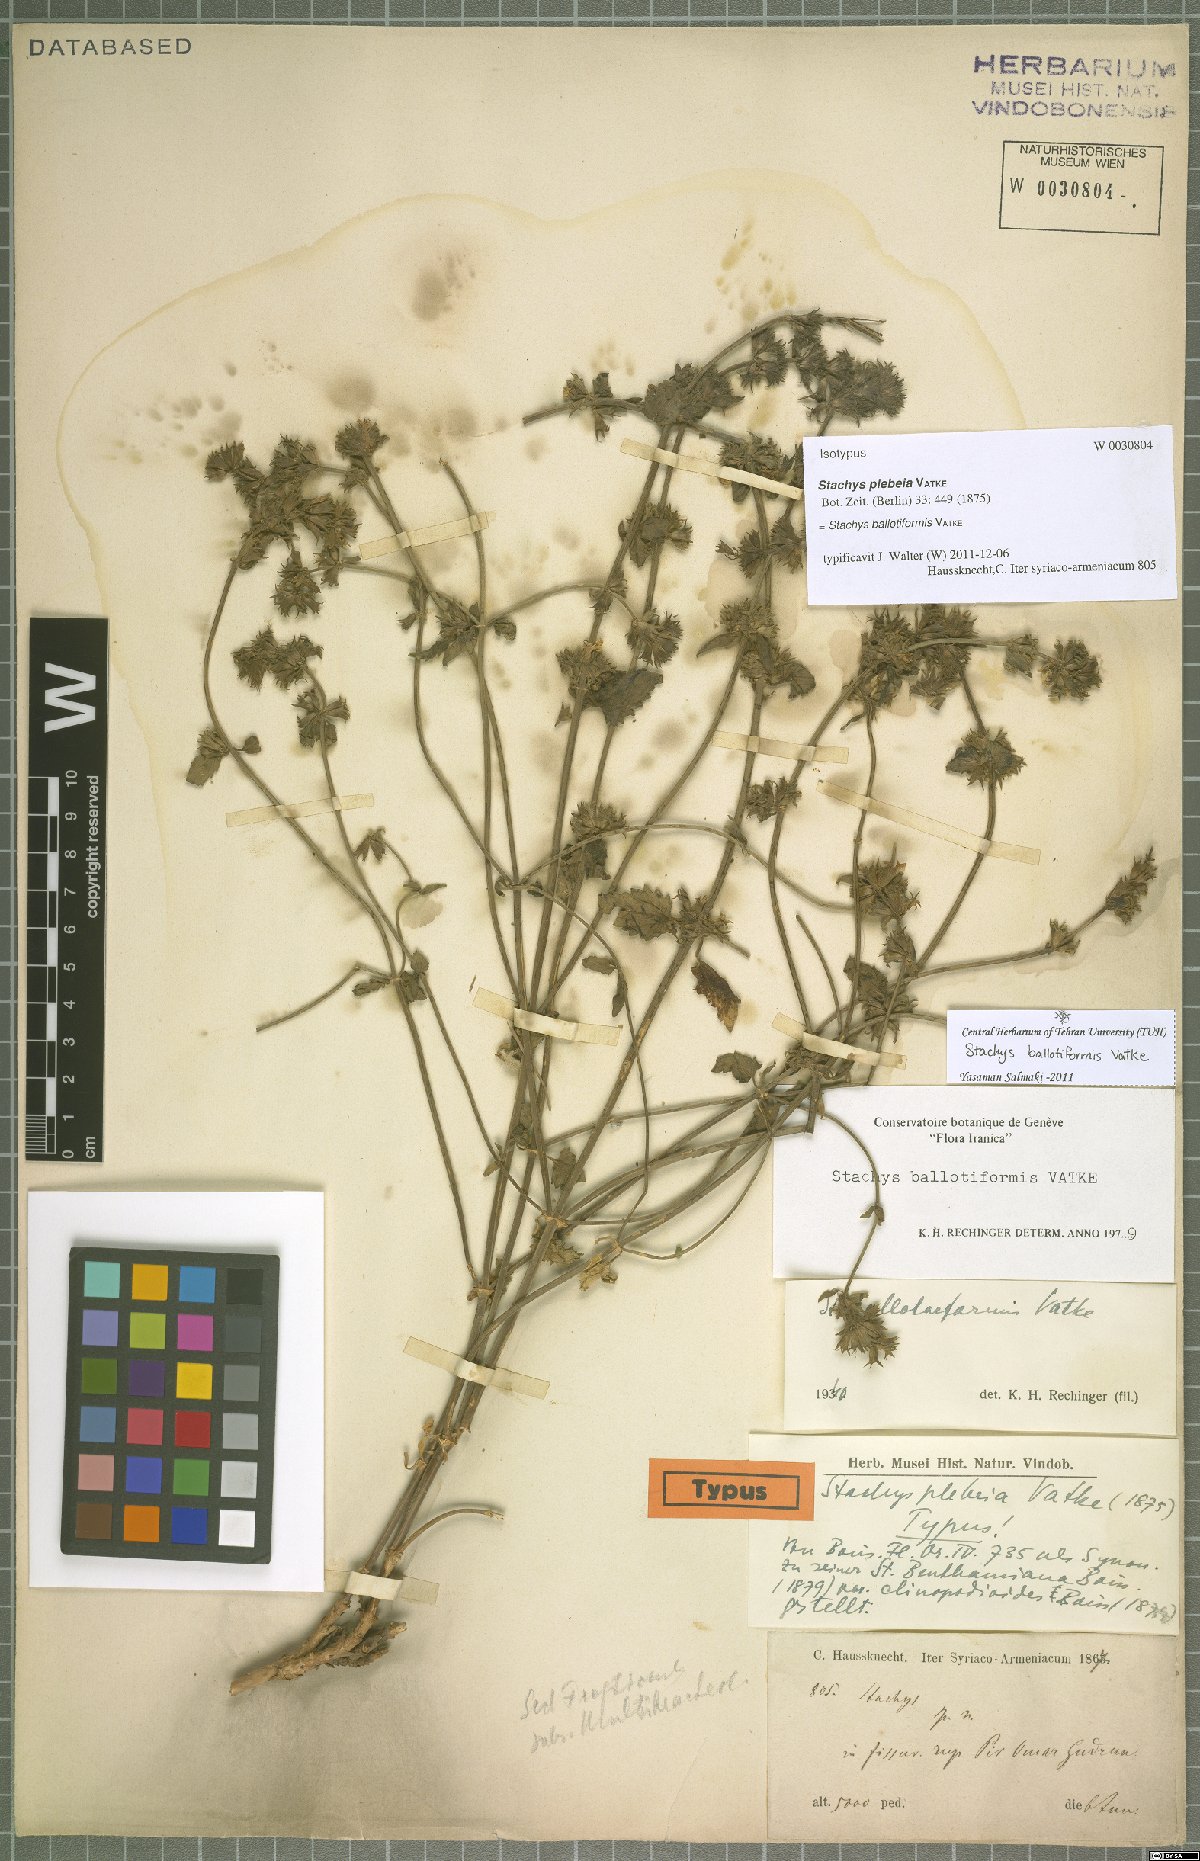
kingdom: Plantae
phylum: Tracheophyta
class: Magnoliopsida
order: Lamiales
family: Lamiaceae
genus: Stachys
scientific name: Stachys kurdica
